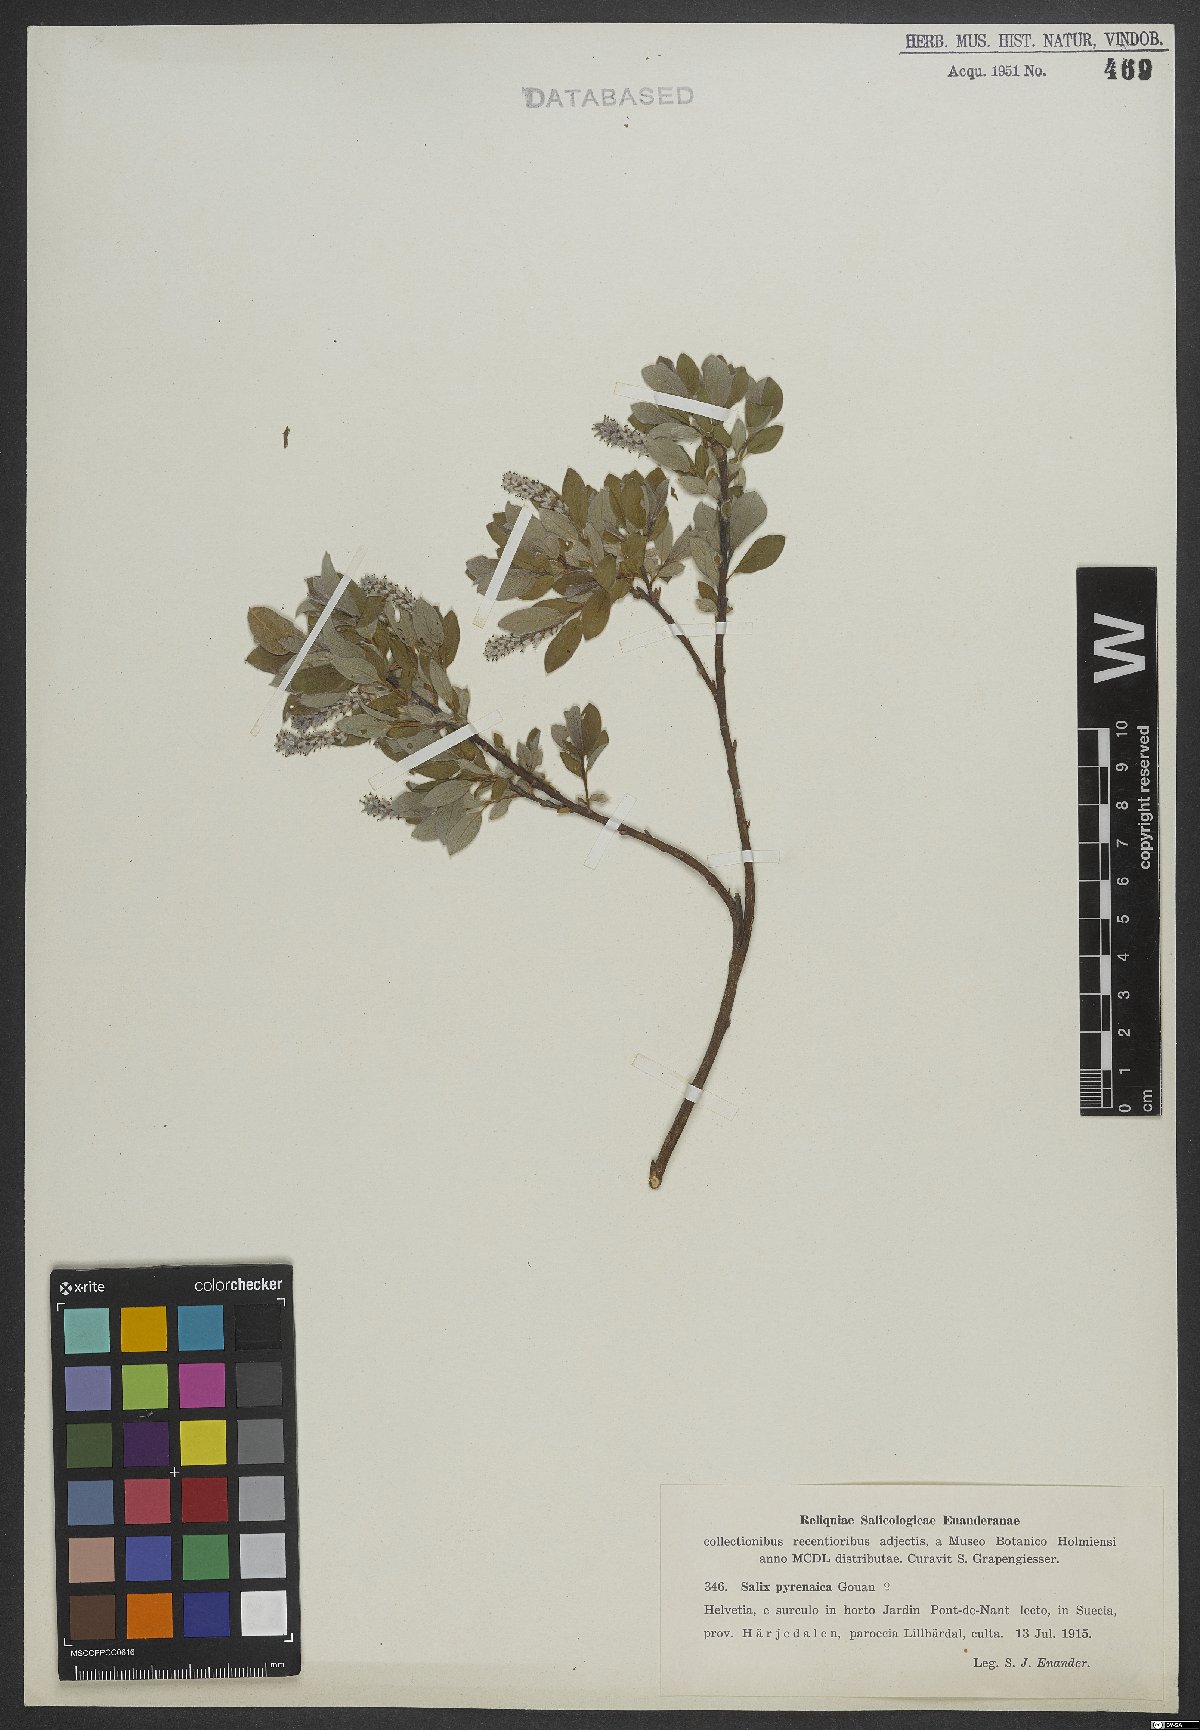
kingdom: Plantae
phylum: Tracheophyta
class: Magnoliopsida
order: Malpighiales
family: Salicaceae
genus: Salix
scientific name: Salix pyrenaica
